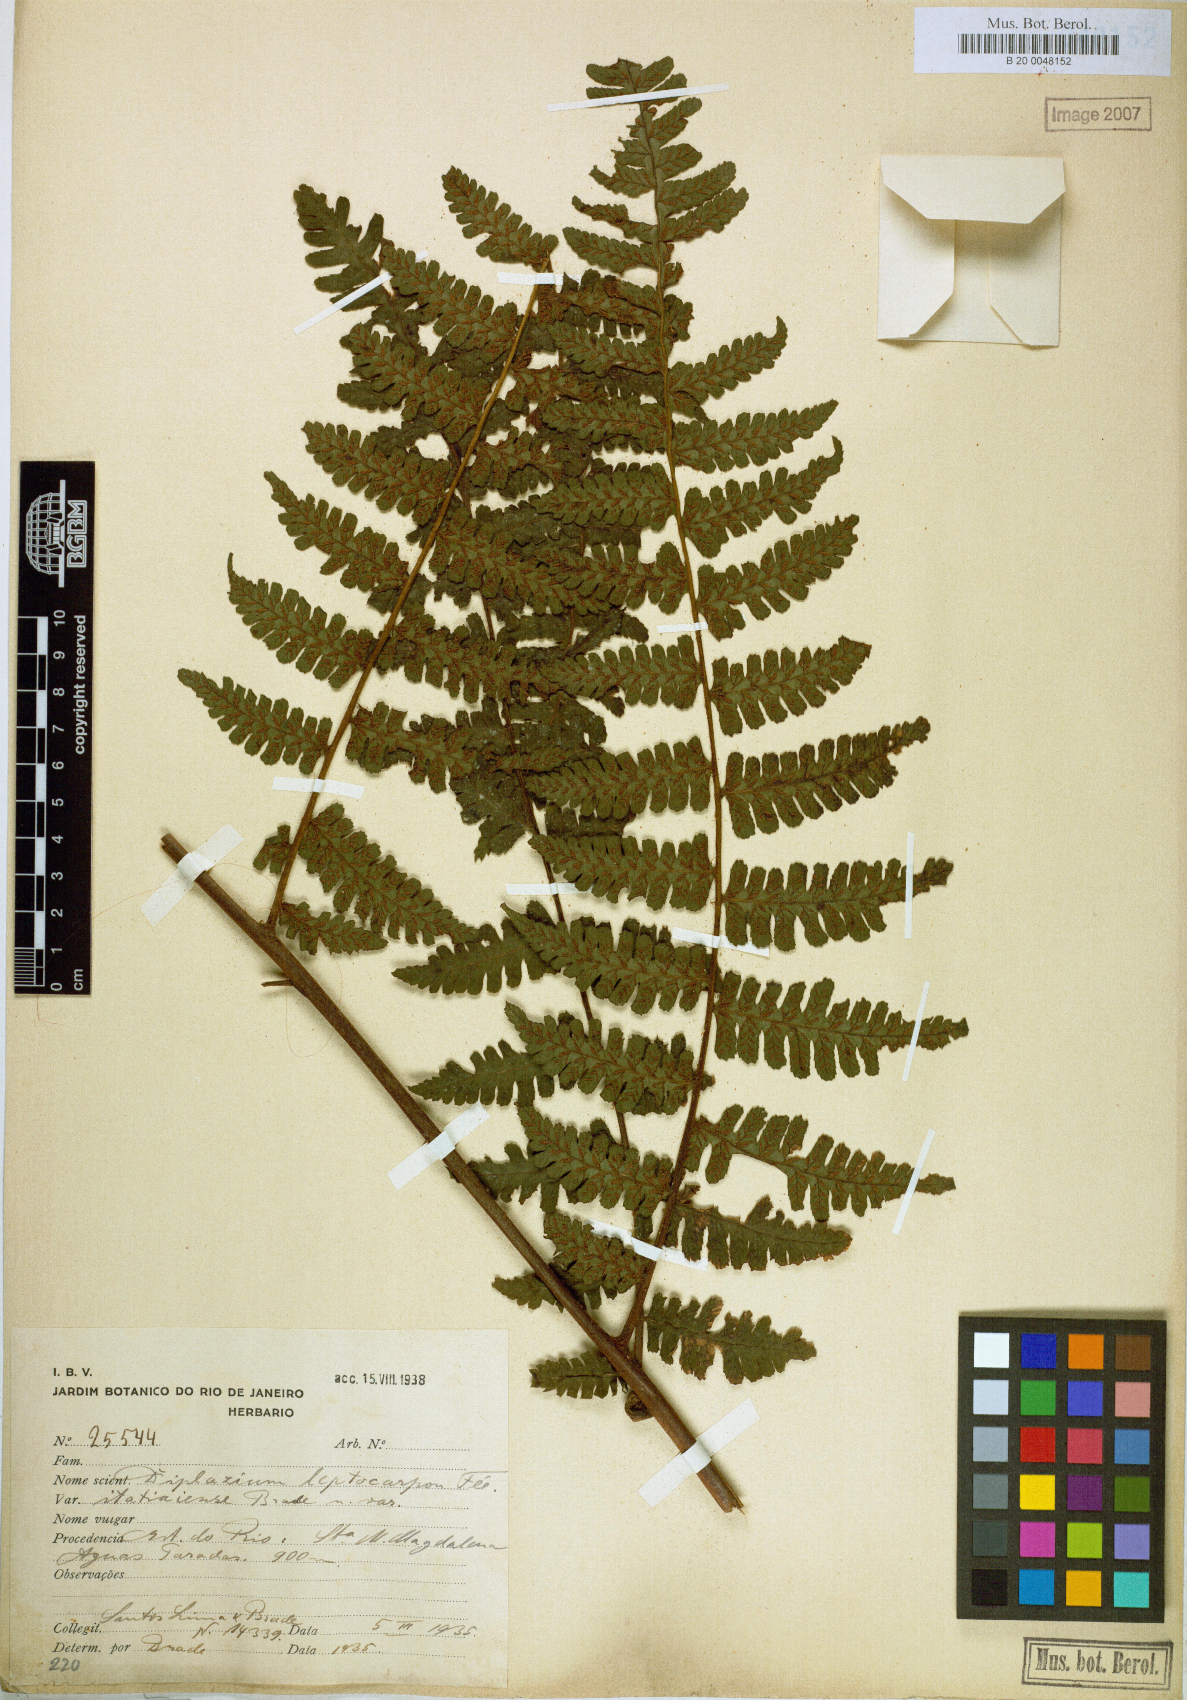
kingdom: Plantae
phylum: Tracheophyta
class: Polypodiopsida
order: Polypodiales
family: Athyriaceae
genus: Diplazium
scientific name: Diplazium leptocarpon
